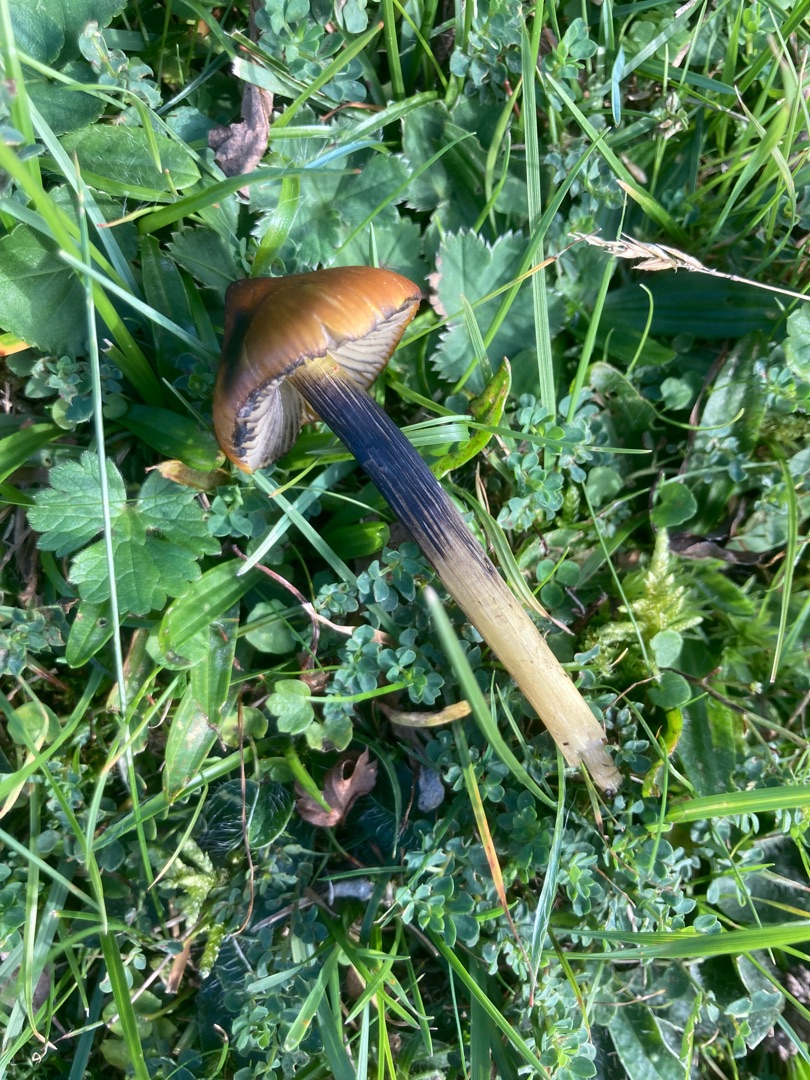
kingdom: Fungi
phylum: Basidiomycota
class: Agaricomycetes
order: Agaricales
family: Hygrophoraceae
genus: Hygrocybe
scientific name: Hygrocybe conica
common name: Kegle-vokshat
